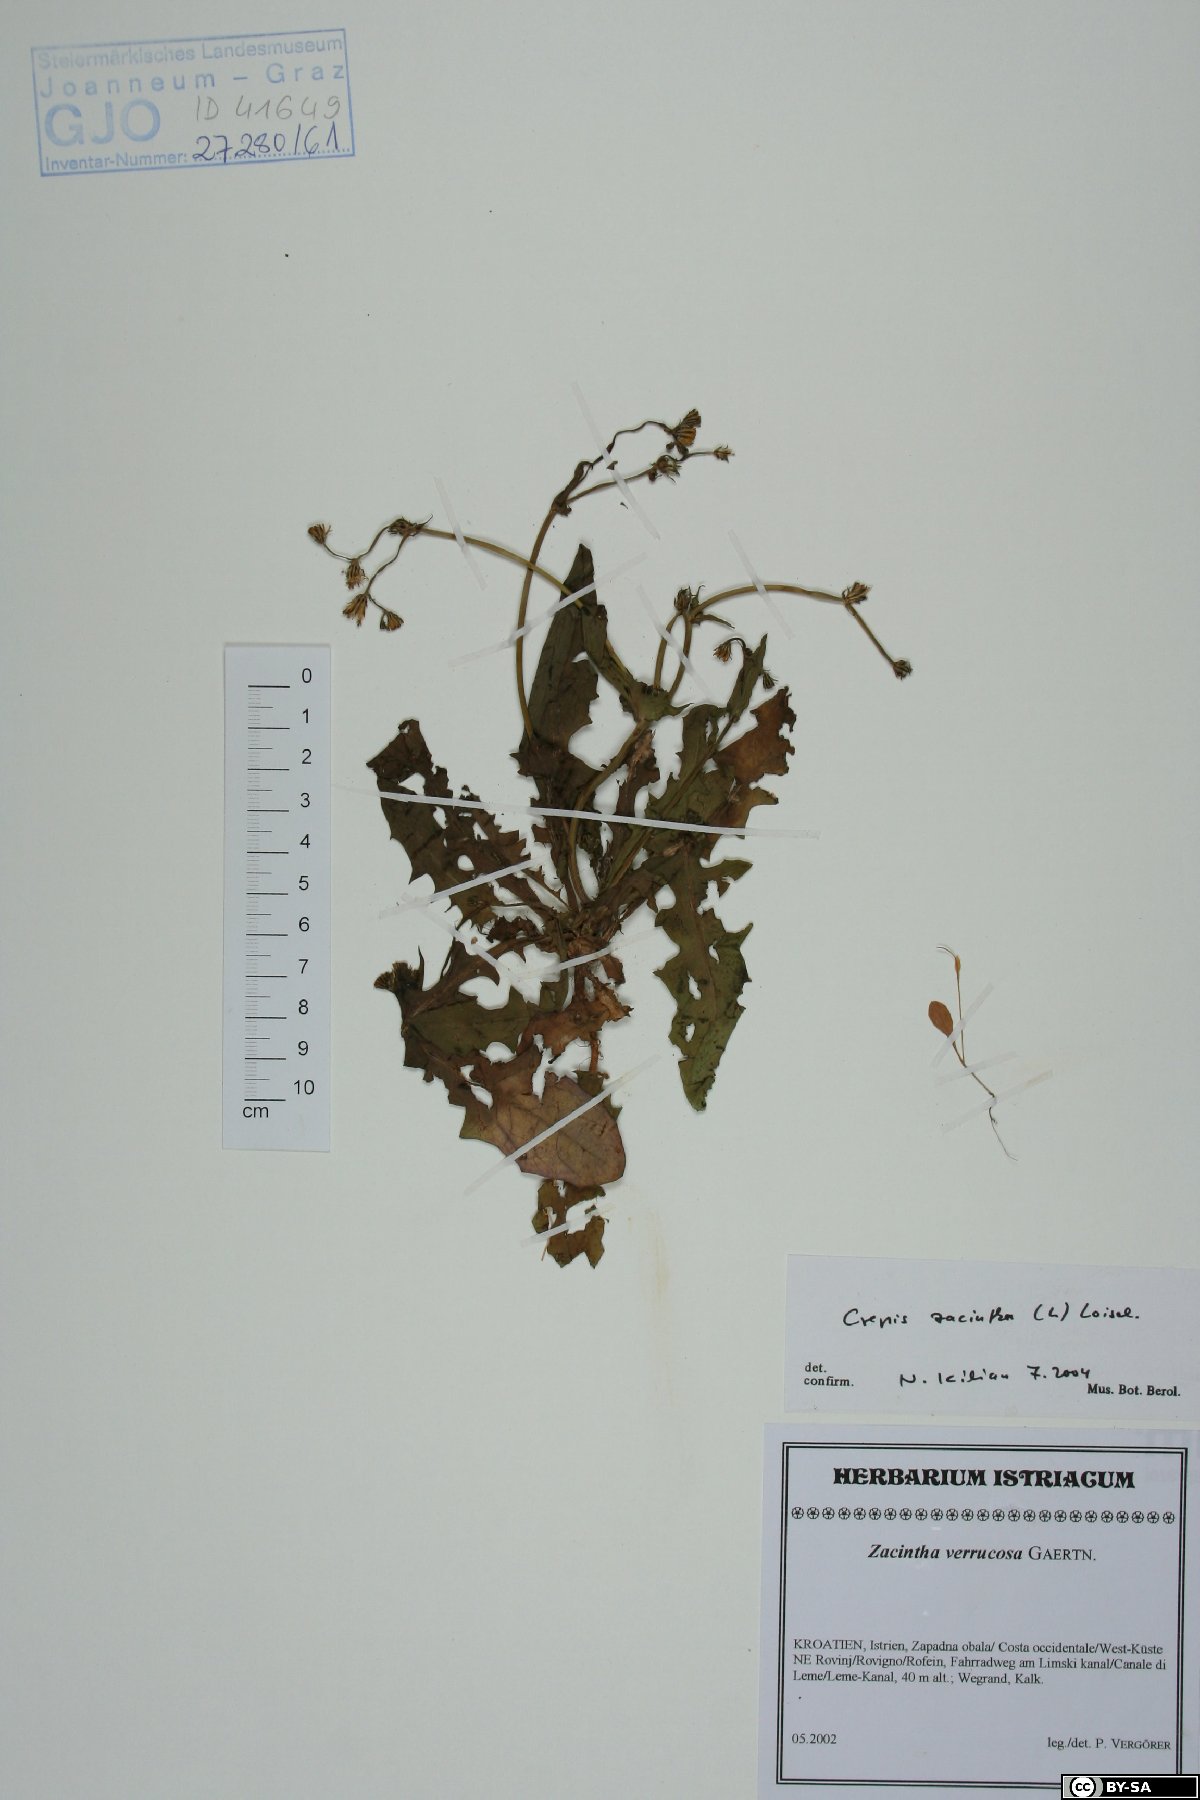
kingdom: Plantae
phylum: Tracheophyta
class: Magnoliopsida
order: Asterales
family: Asteraceae
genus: Crepis
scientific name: Crepis zacintha
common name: Striped hawksbeard
